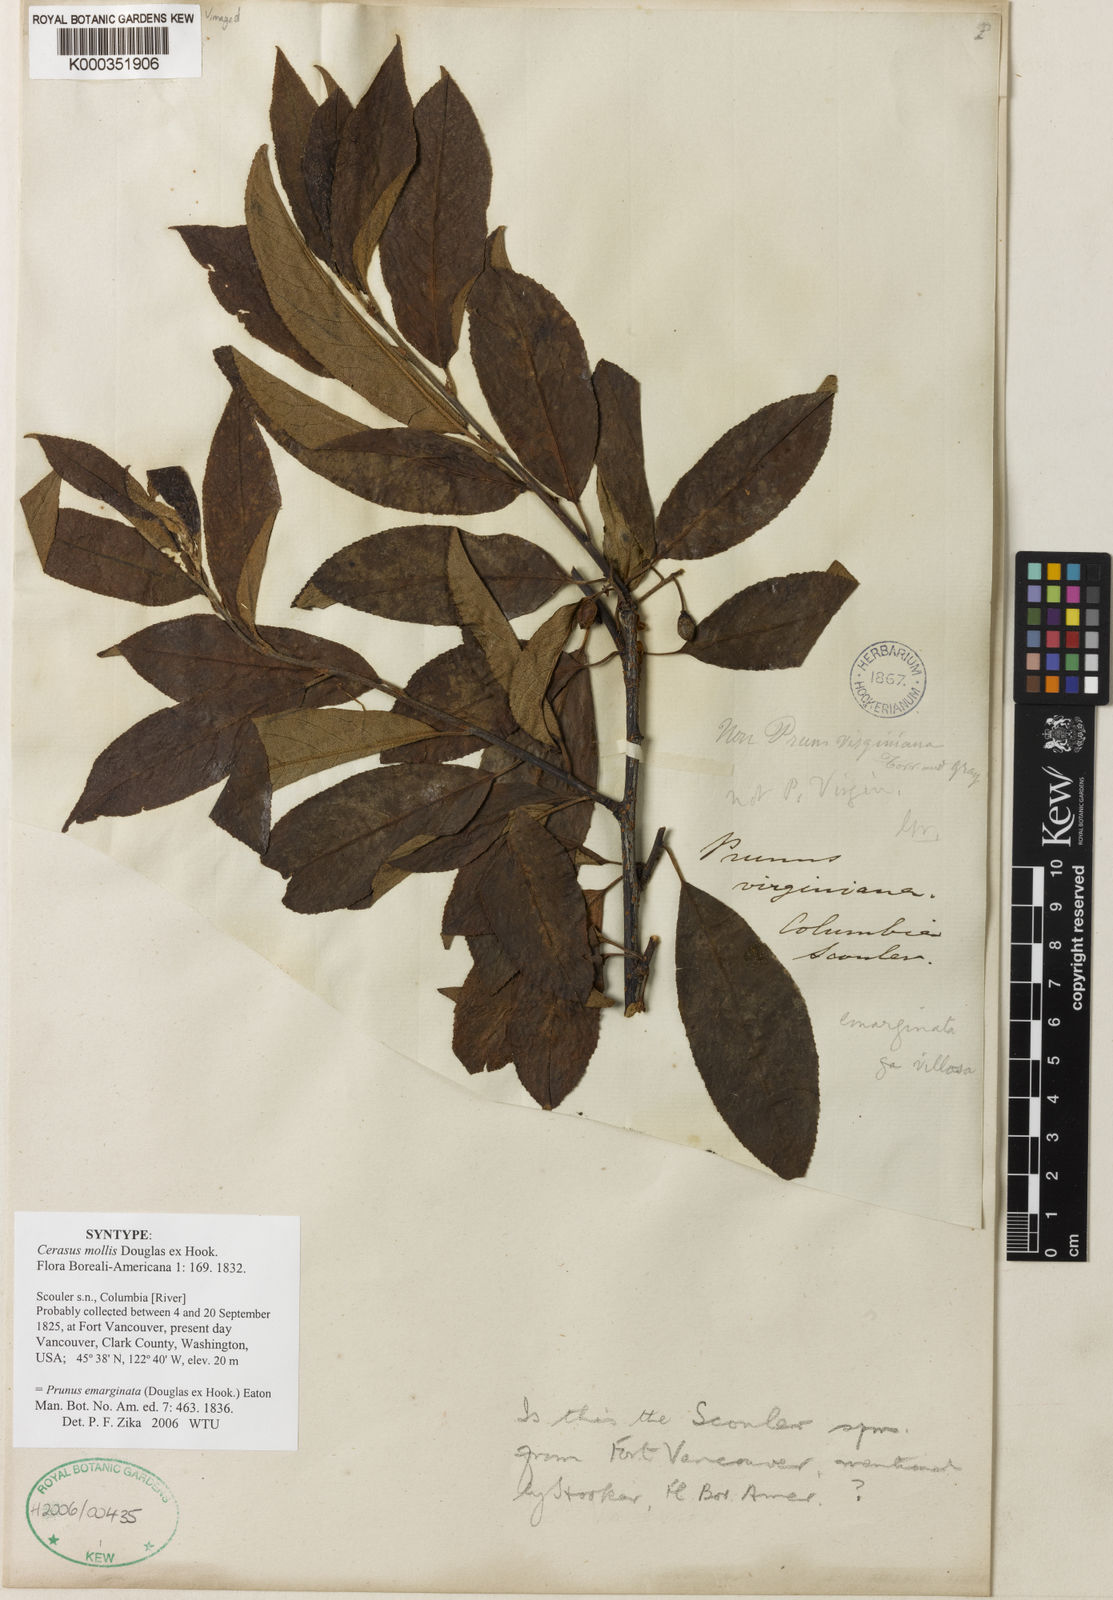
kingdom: Plantae
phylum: Tracheophyta
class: Magnoliopsida
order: Rosales
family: Rosaceae
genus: Prunus
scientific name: Prunus emarginata
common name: Bitter cherry
